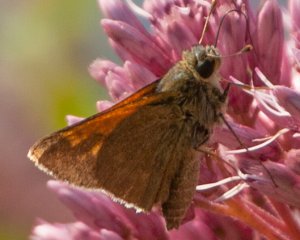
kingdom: Animalia
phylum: Arthropoda
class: Insecta
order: Lepidoptera
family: Hesperiidae
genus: Polites
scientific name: Polites themistocles
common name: Tawny-edged Skipper
